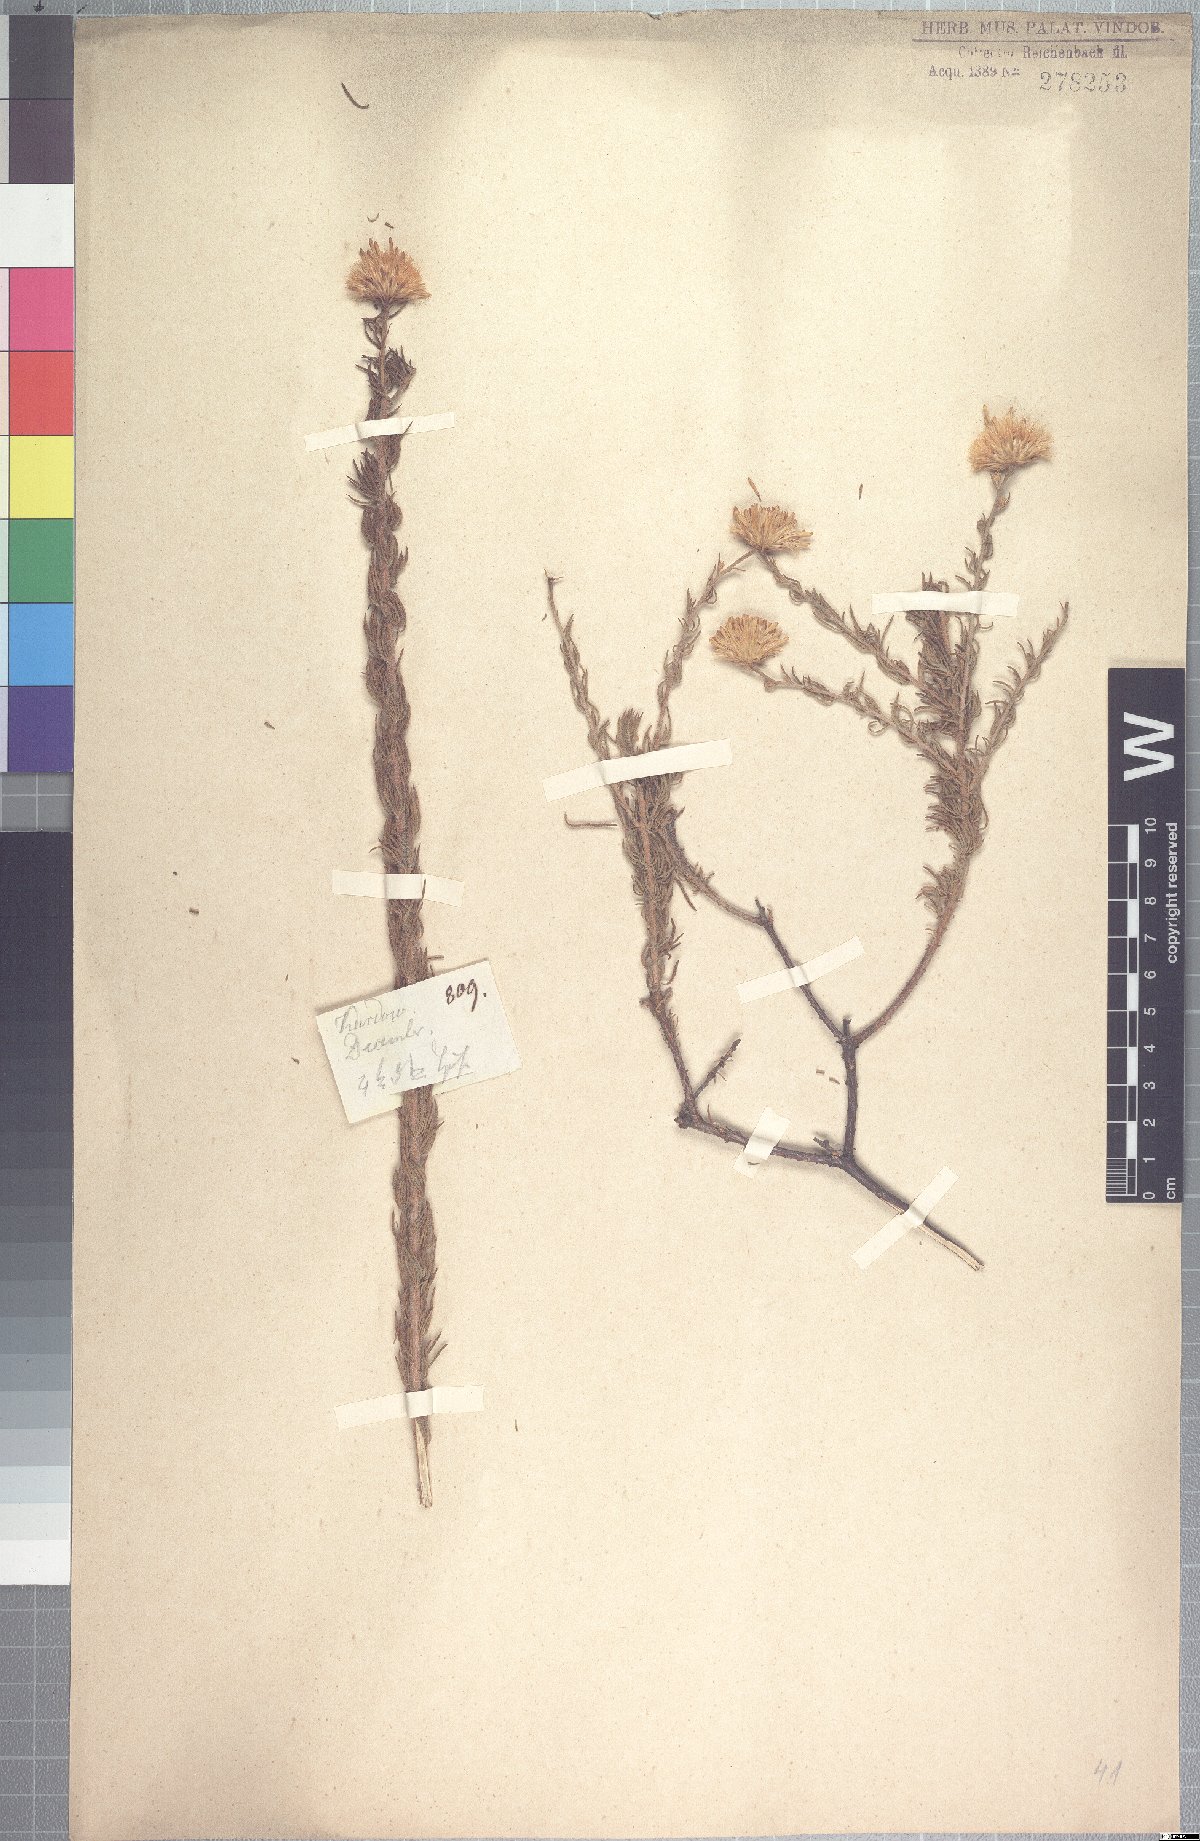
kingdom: Plantae
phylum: Tracheophyta
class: Magnoliopsida
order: Asterales
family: Asteraceae
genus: Pteronia
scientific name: Pteronia camphorata
